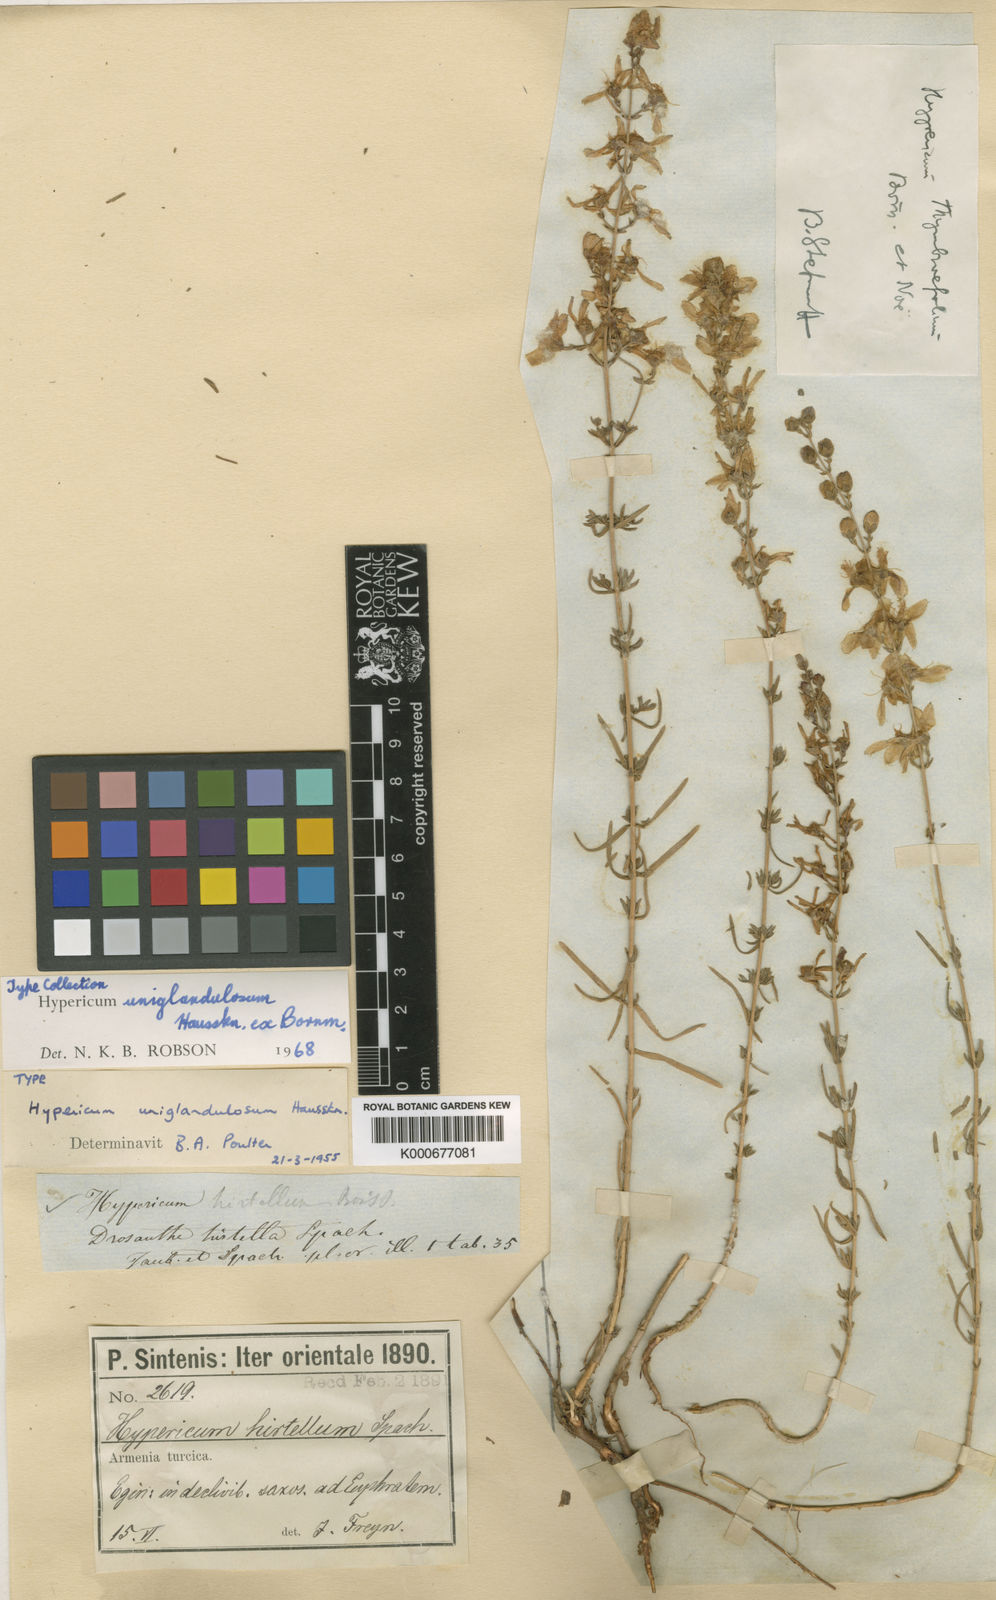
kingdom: Plantae
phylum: Tracheophyta
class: Magnoliopsida
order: Malpighiales
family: Hypericaceae
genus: Hypericum
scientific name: Hypericum uniglandulosum
